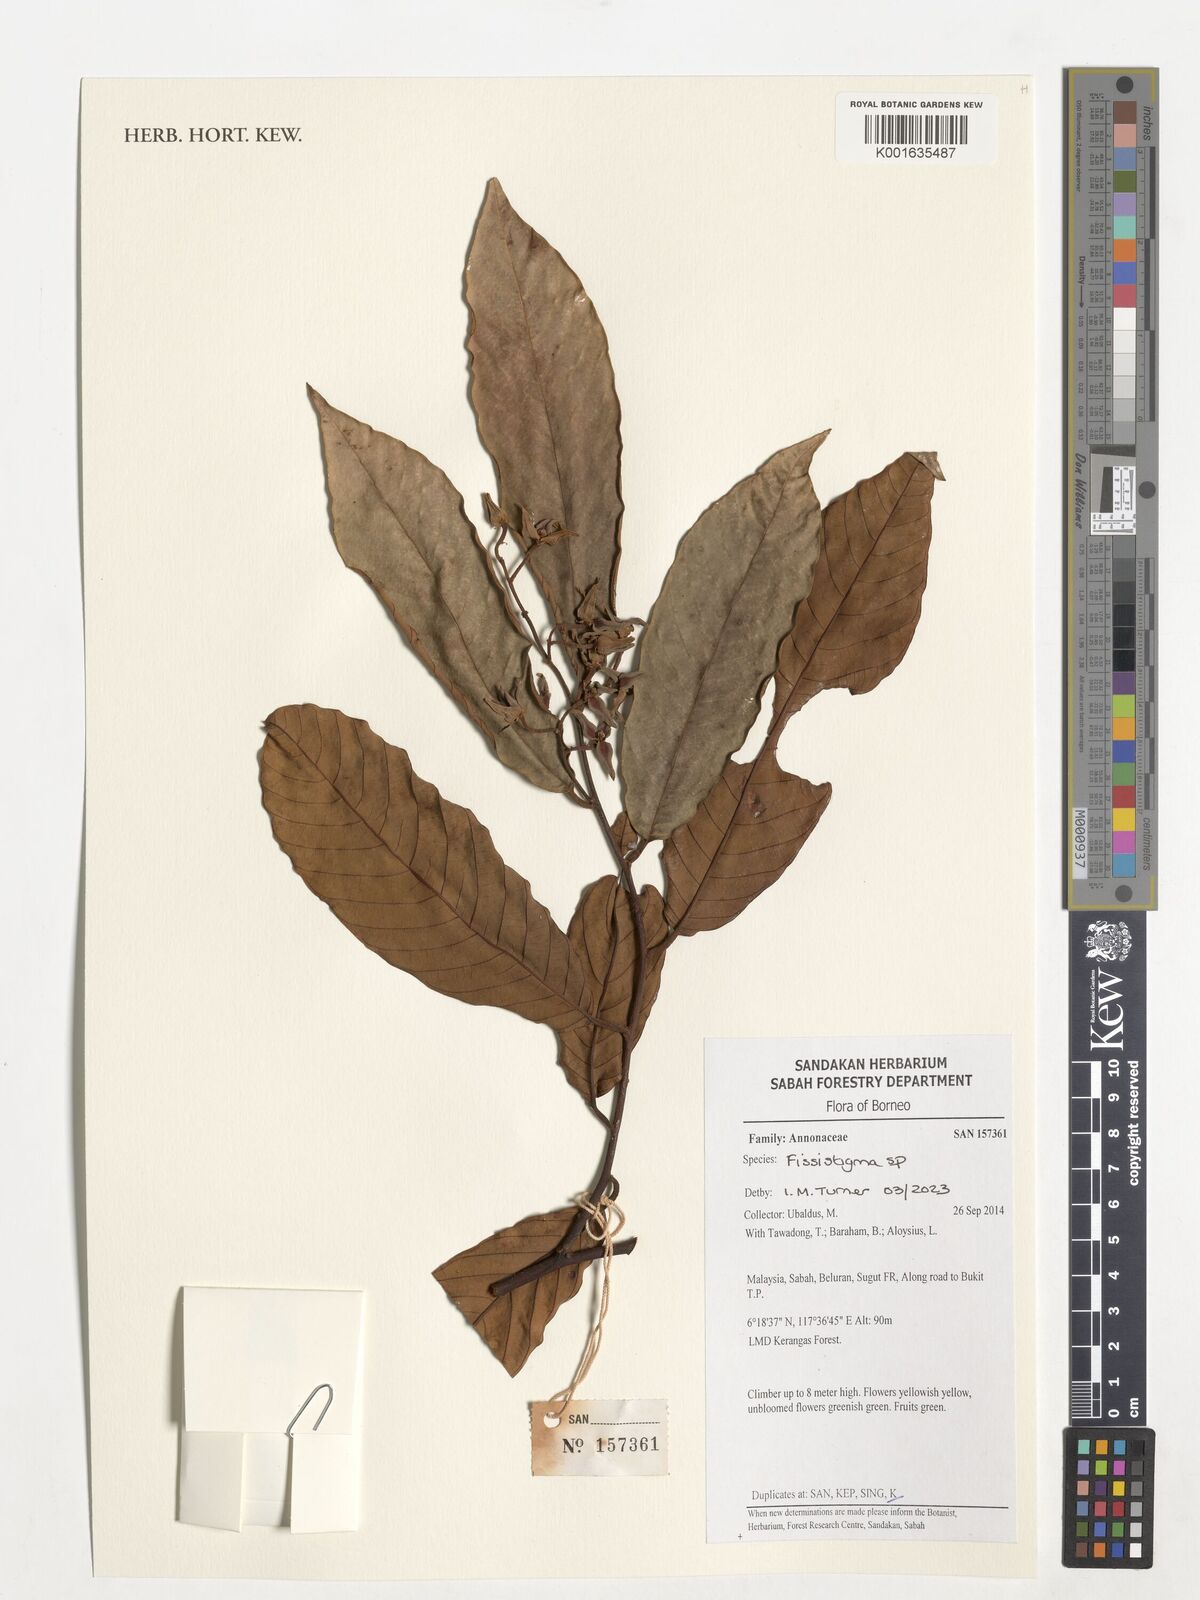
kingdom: Plantae
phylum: Tracheophyta
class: Magnoliopsida
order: Magnoliales
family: Annonaceae
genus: Fissistigma
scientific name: Fissistigma
